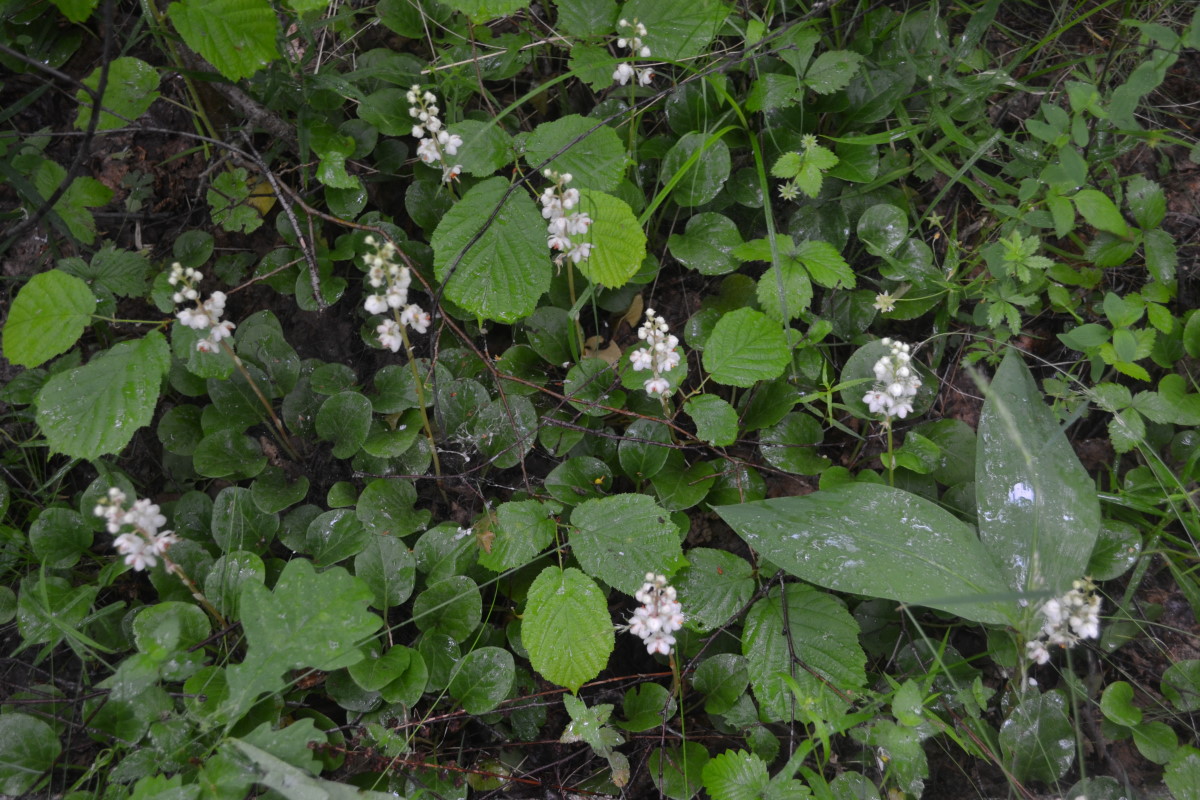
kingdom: Plantae
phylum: Tracheophyta
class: Magnoliopsida
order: Ericales
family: Ericaceae
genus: Pyrola
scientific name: Pyrola rotundifolia
